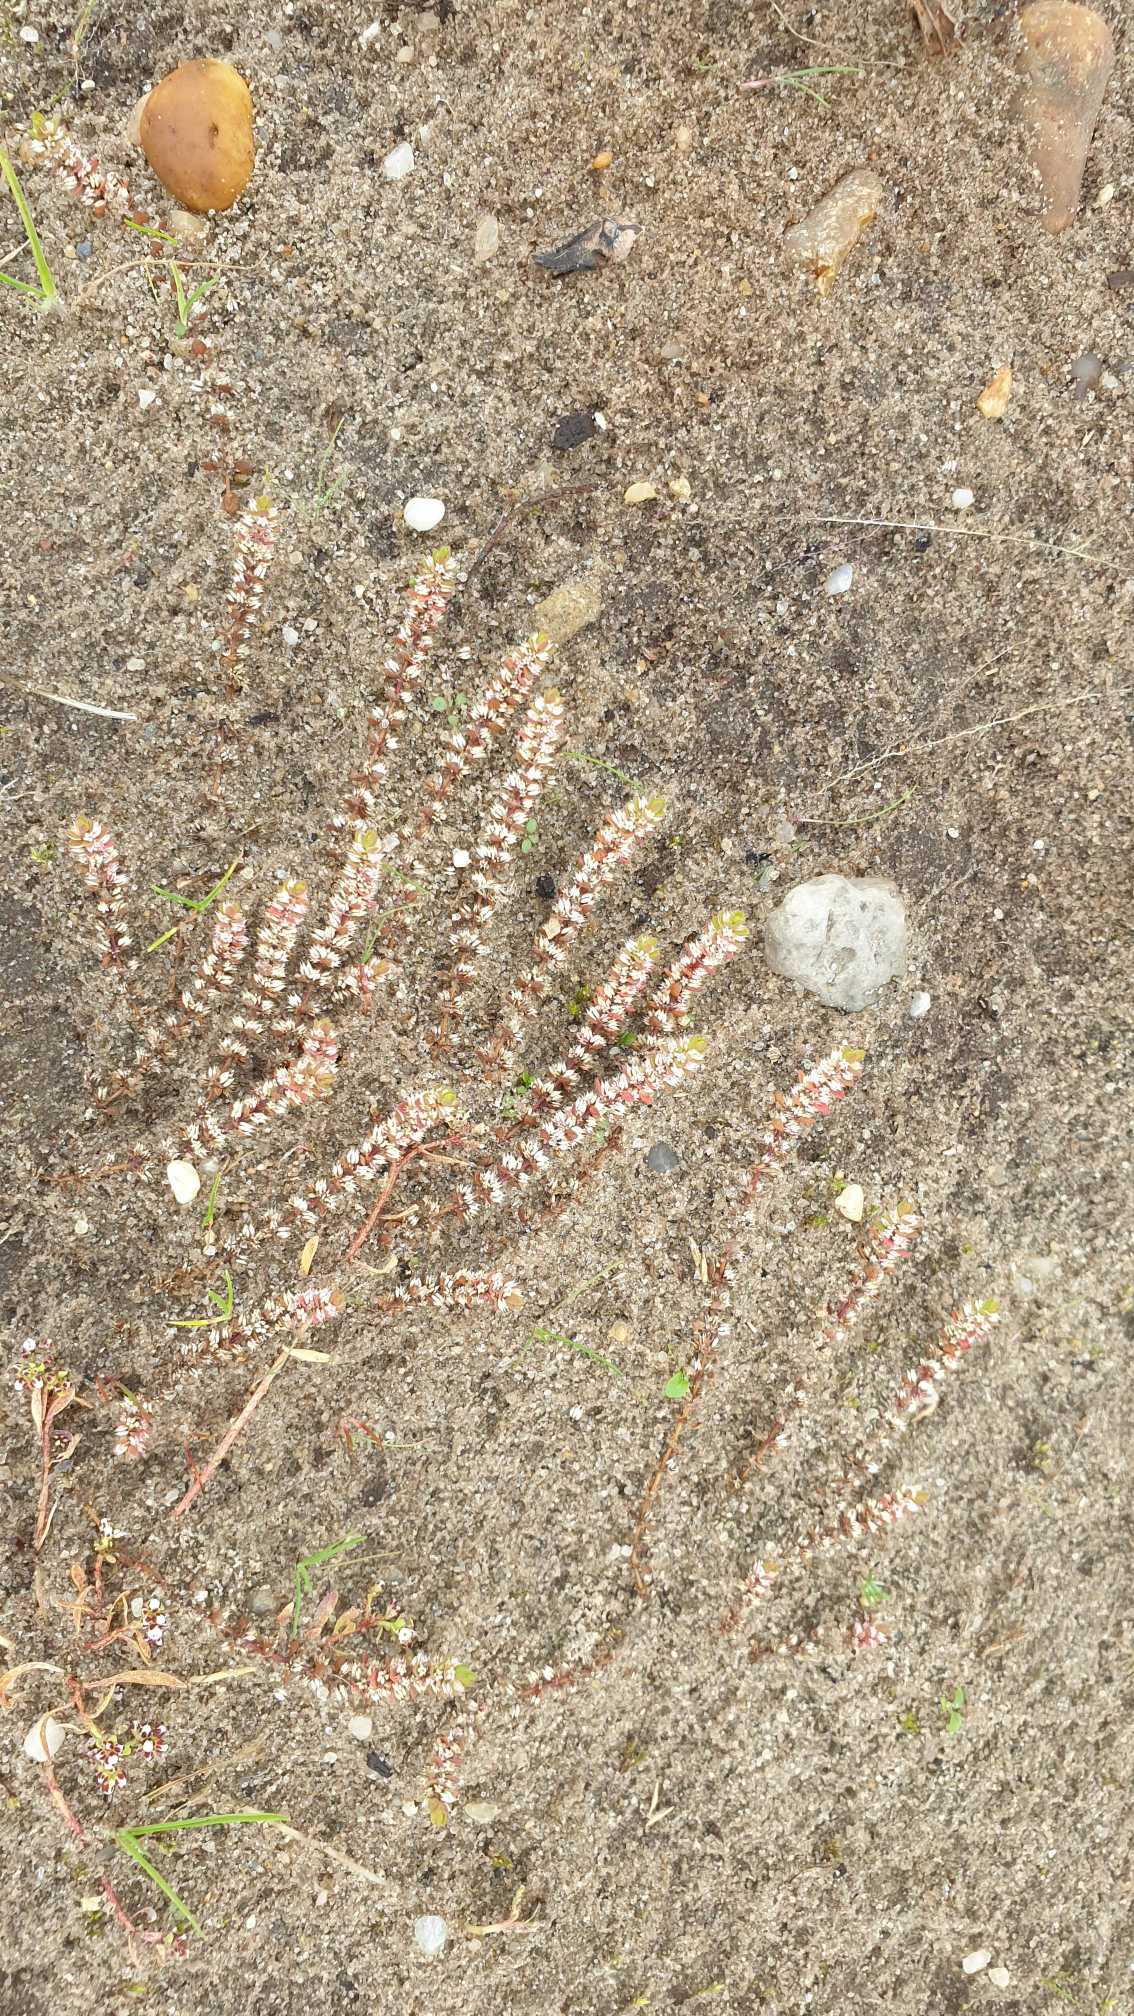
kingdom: Plantae
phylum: Tracheophyta
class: Magnoliopsida
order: Caryophyllales
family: Caryophyllaceae
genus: Illecebrum
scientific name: Illecebrum verticillatum
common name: Bruskbæger
